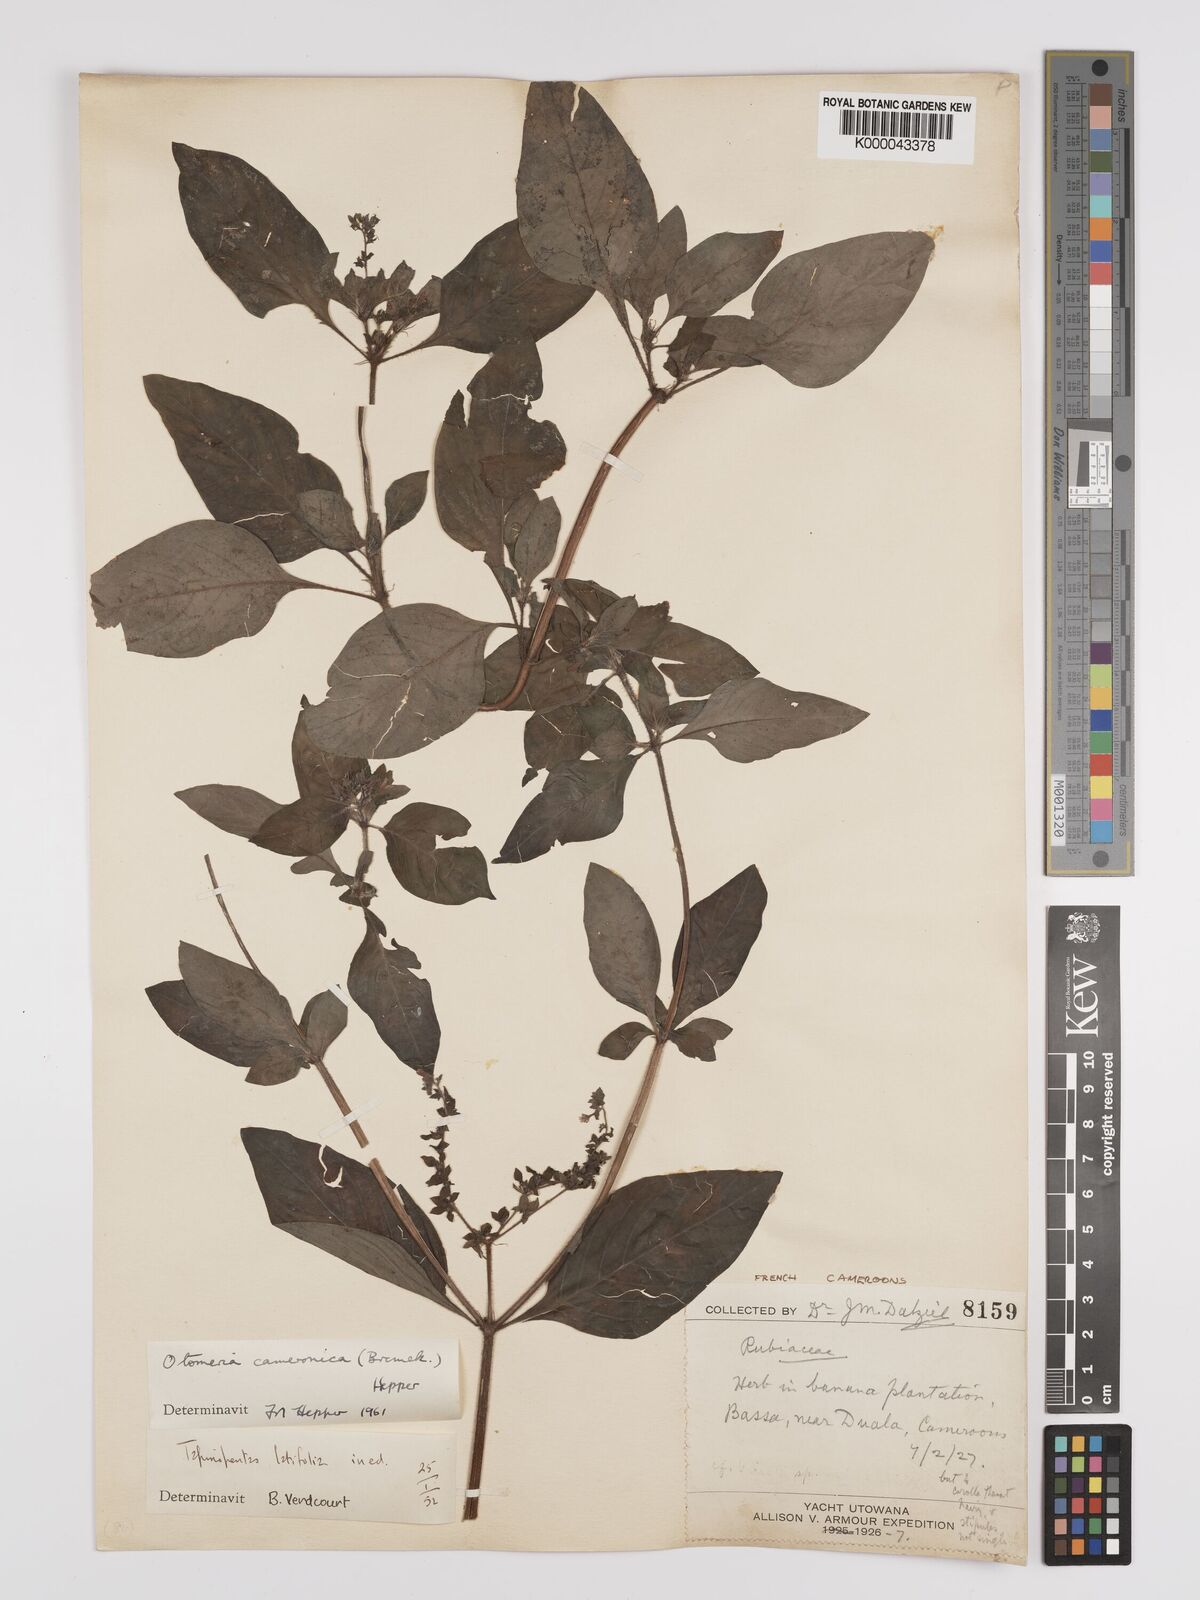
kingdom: Plantae
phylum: Tracheophyta
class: Magnoliopsida
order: Gentianales
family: Rubiaceae
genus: Otomeria
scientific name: Otomeria cameronica
